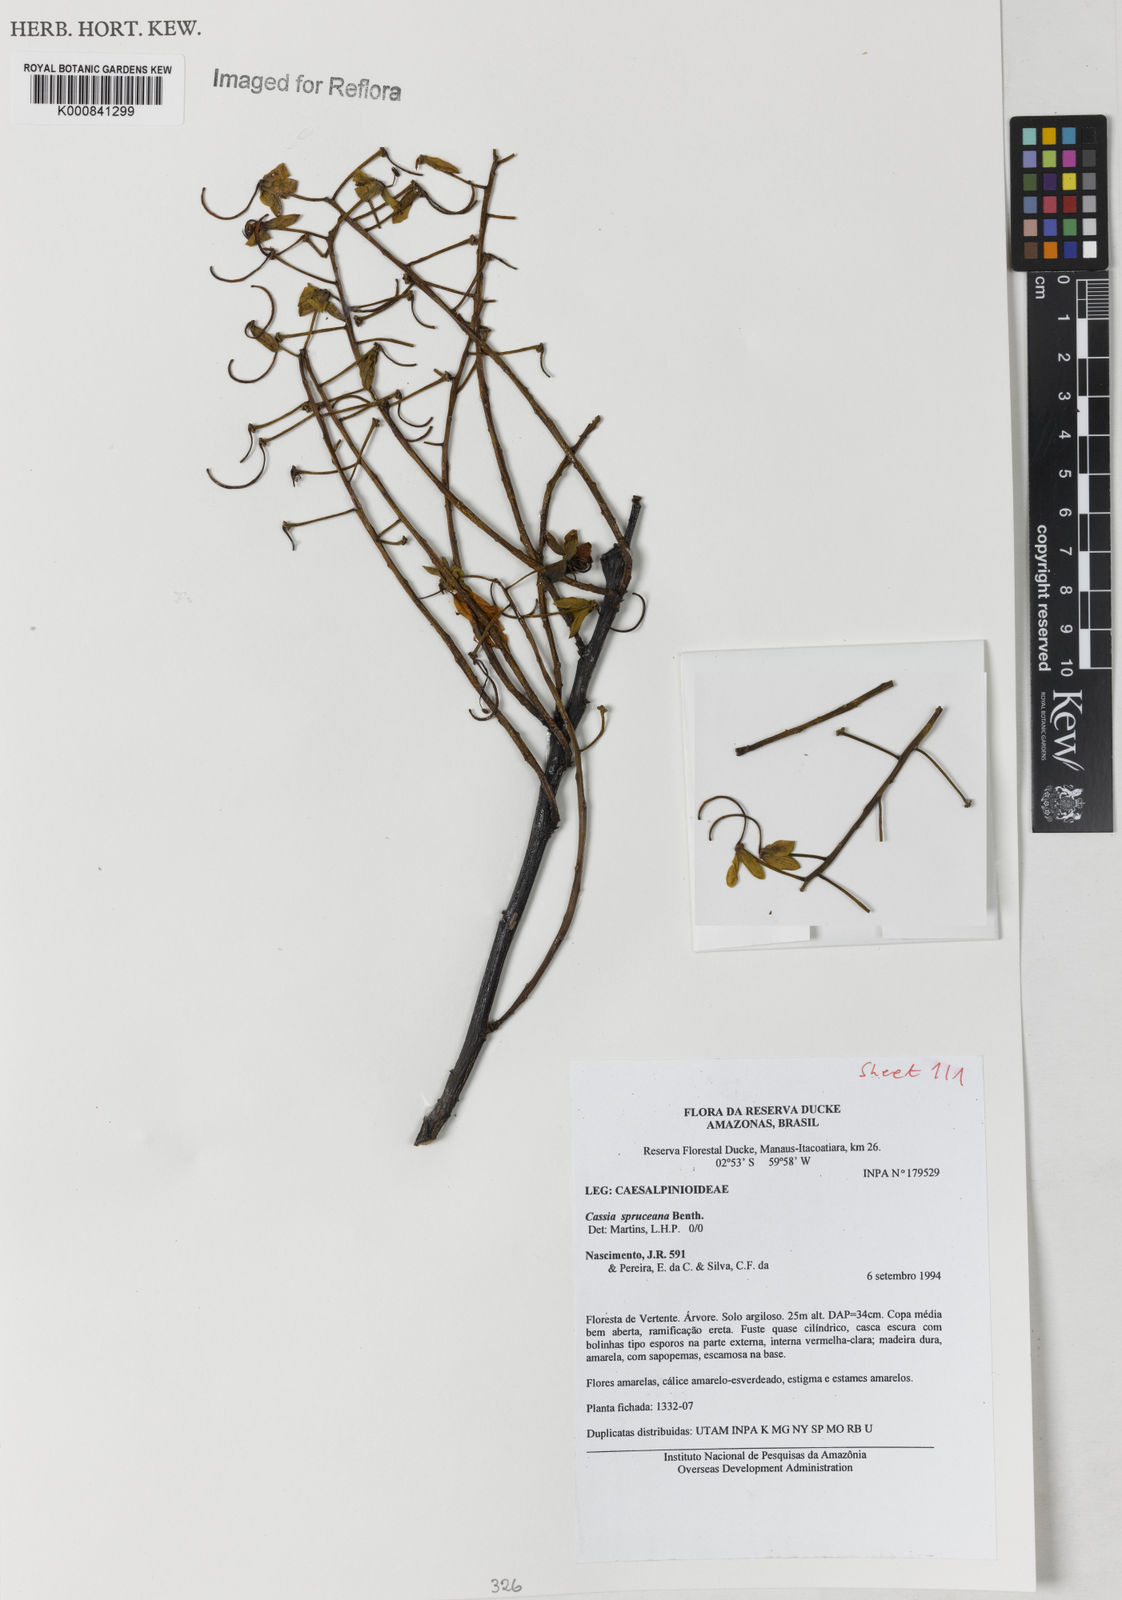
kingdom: Plantae
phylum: Tracheophyta
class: Magnoliopsida
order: Fabales
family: Fabaceae
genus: Cassia
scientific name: Cassia spruceana
